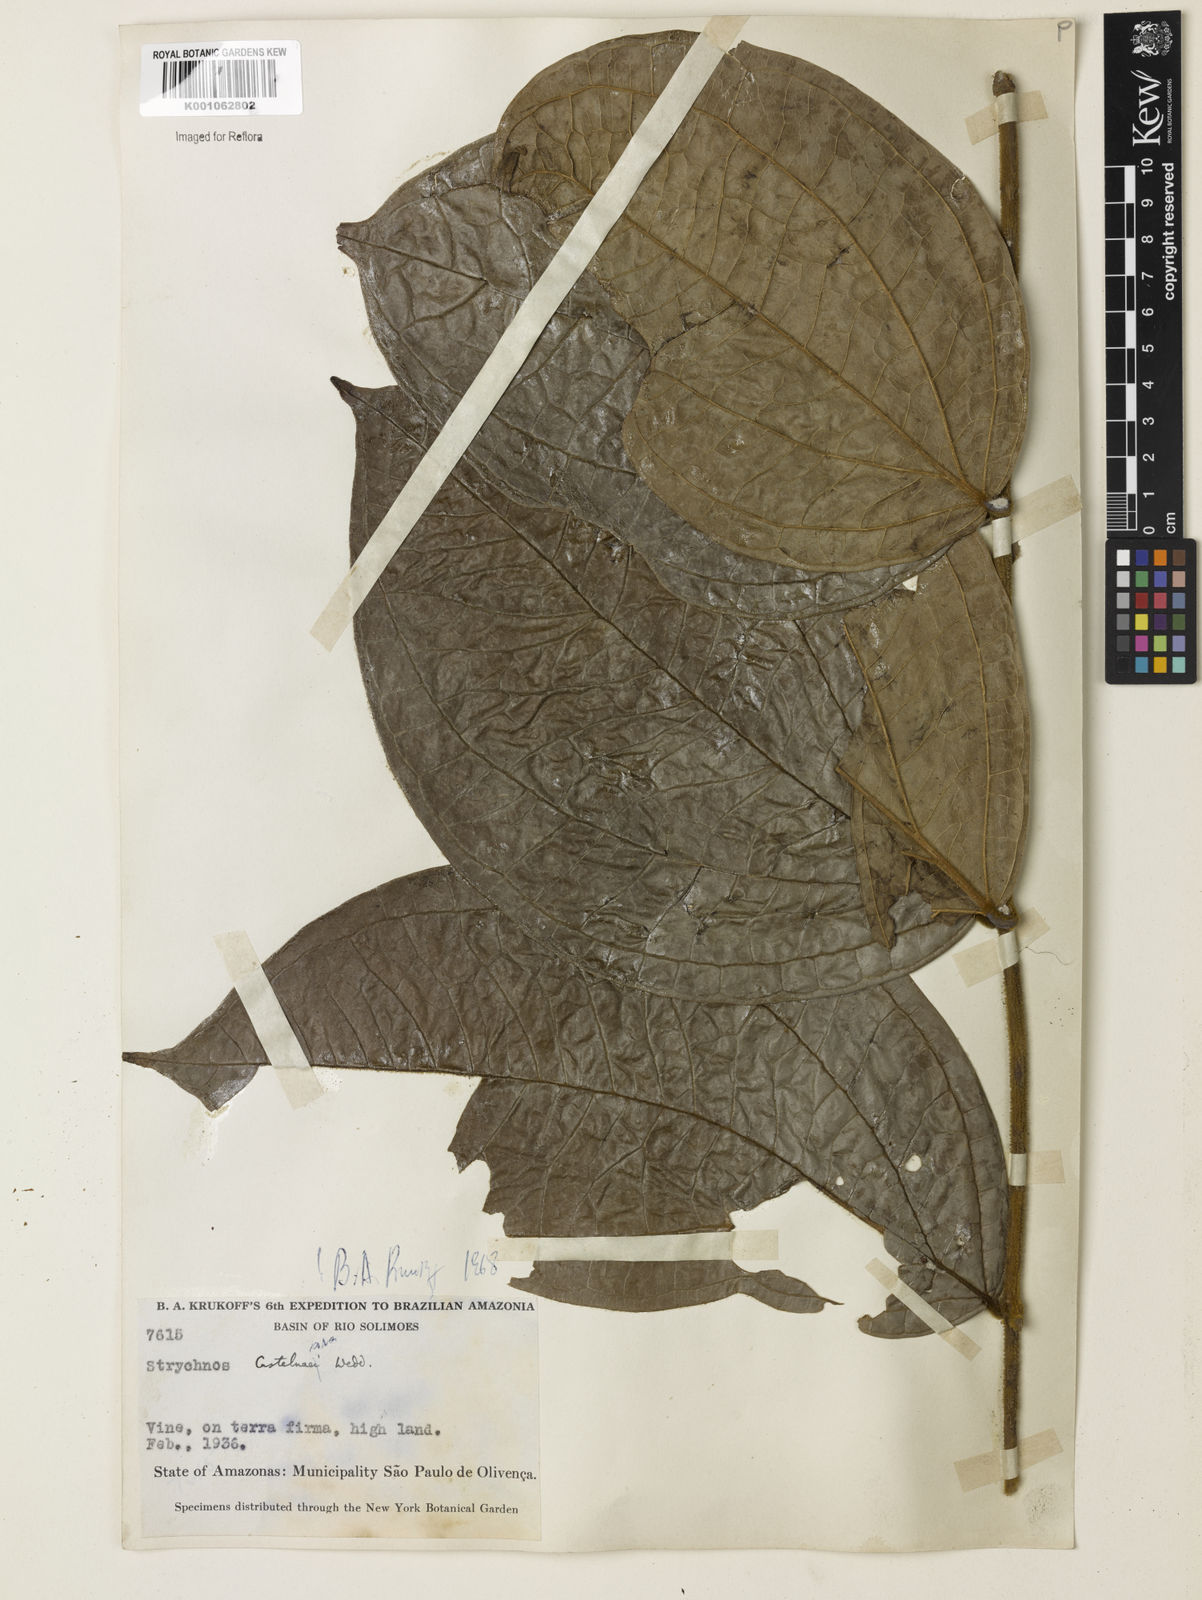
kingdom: Plantae
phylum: Tracheophyta
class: Magnoliopsida
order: Gentianales
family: Loganiaceae
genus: Strychnos
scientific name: Strychnos
